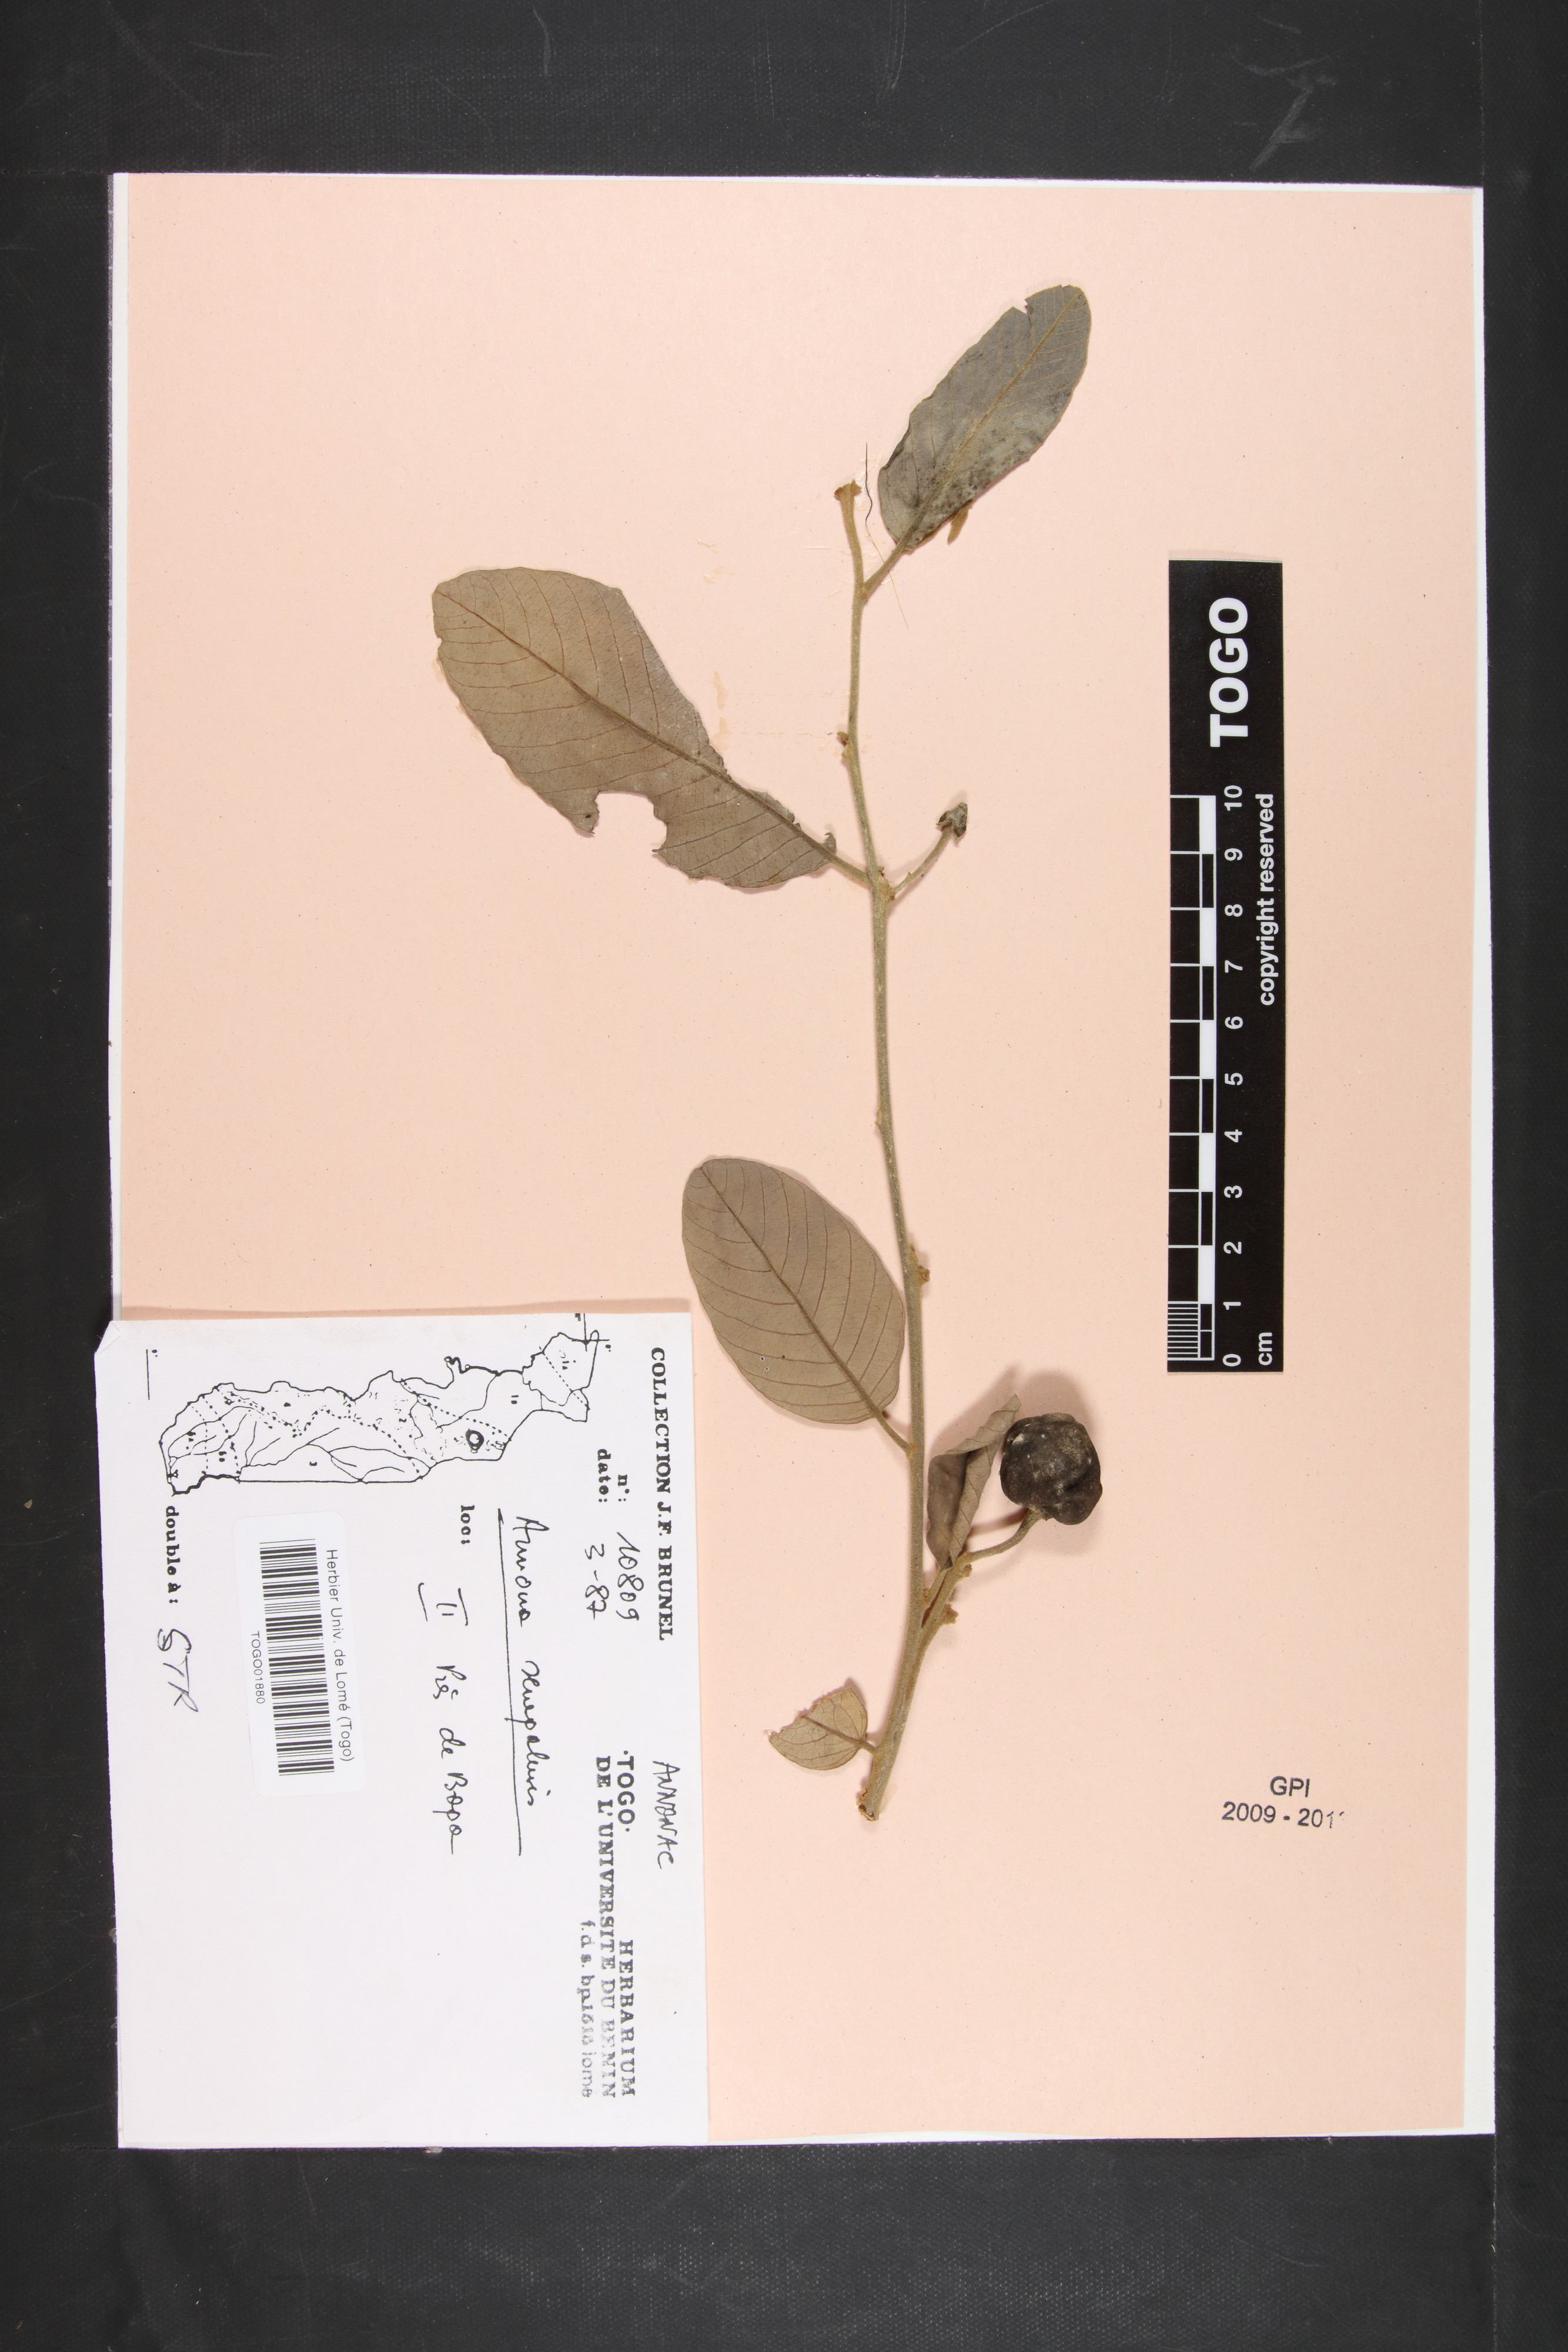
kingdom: Plantae
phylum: Tracheophyta
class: Magnoliopsida
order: Magnoliales
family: Annonaceae
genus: Annona
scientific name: Annona senegalensis
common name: Wild custard-apple
